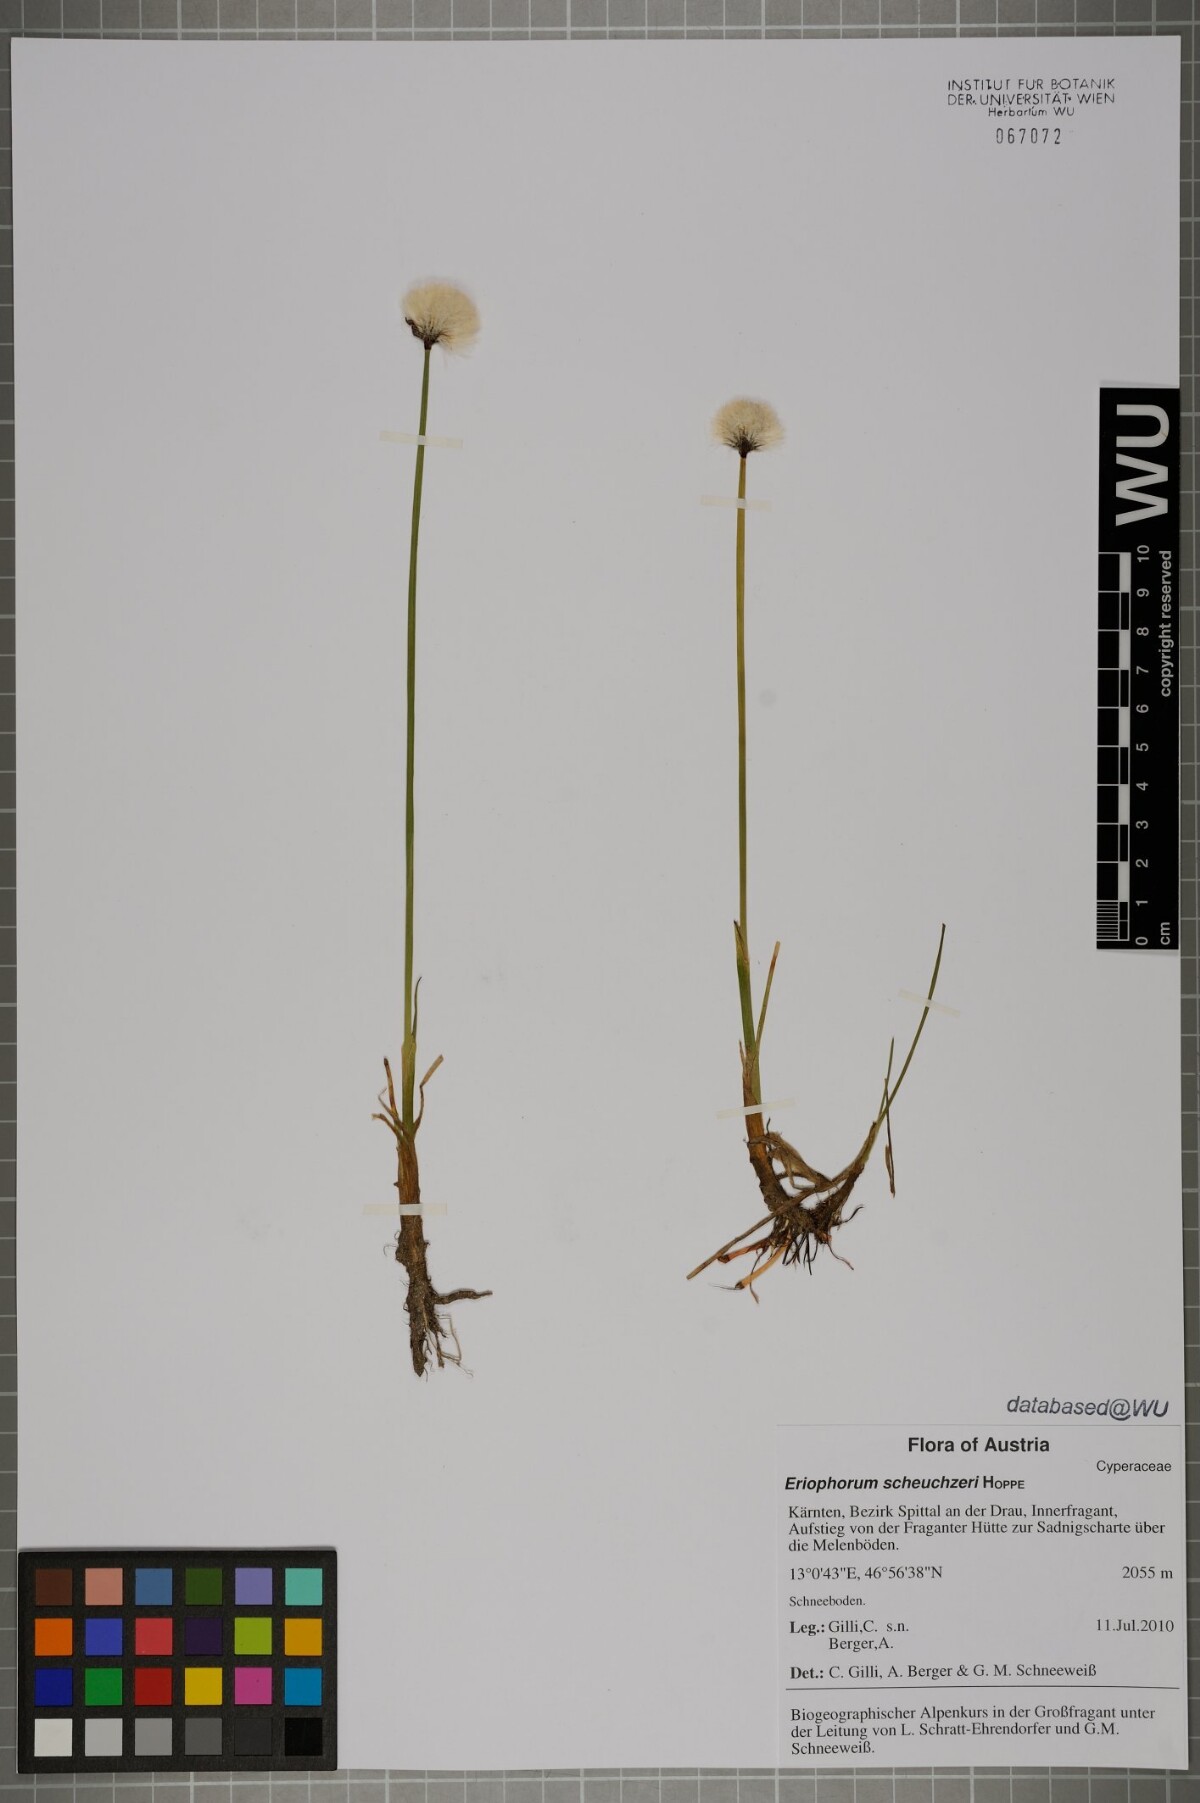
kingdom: Plantae
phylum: Tracheophyta
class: Liliopsida
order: Poales
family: Cyperaceae
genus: Eriophorum
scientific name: Eriophorum scheuchzeri
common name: Scheuchzer's cottongrass
